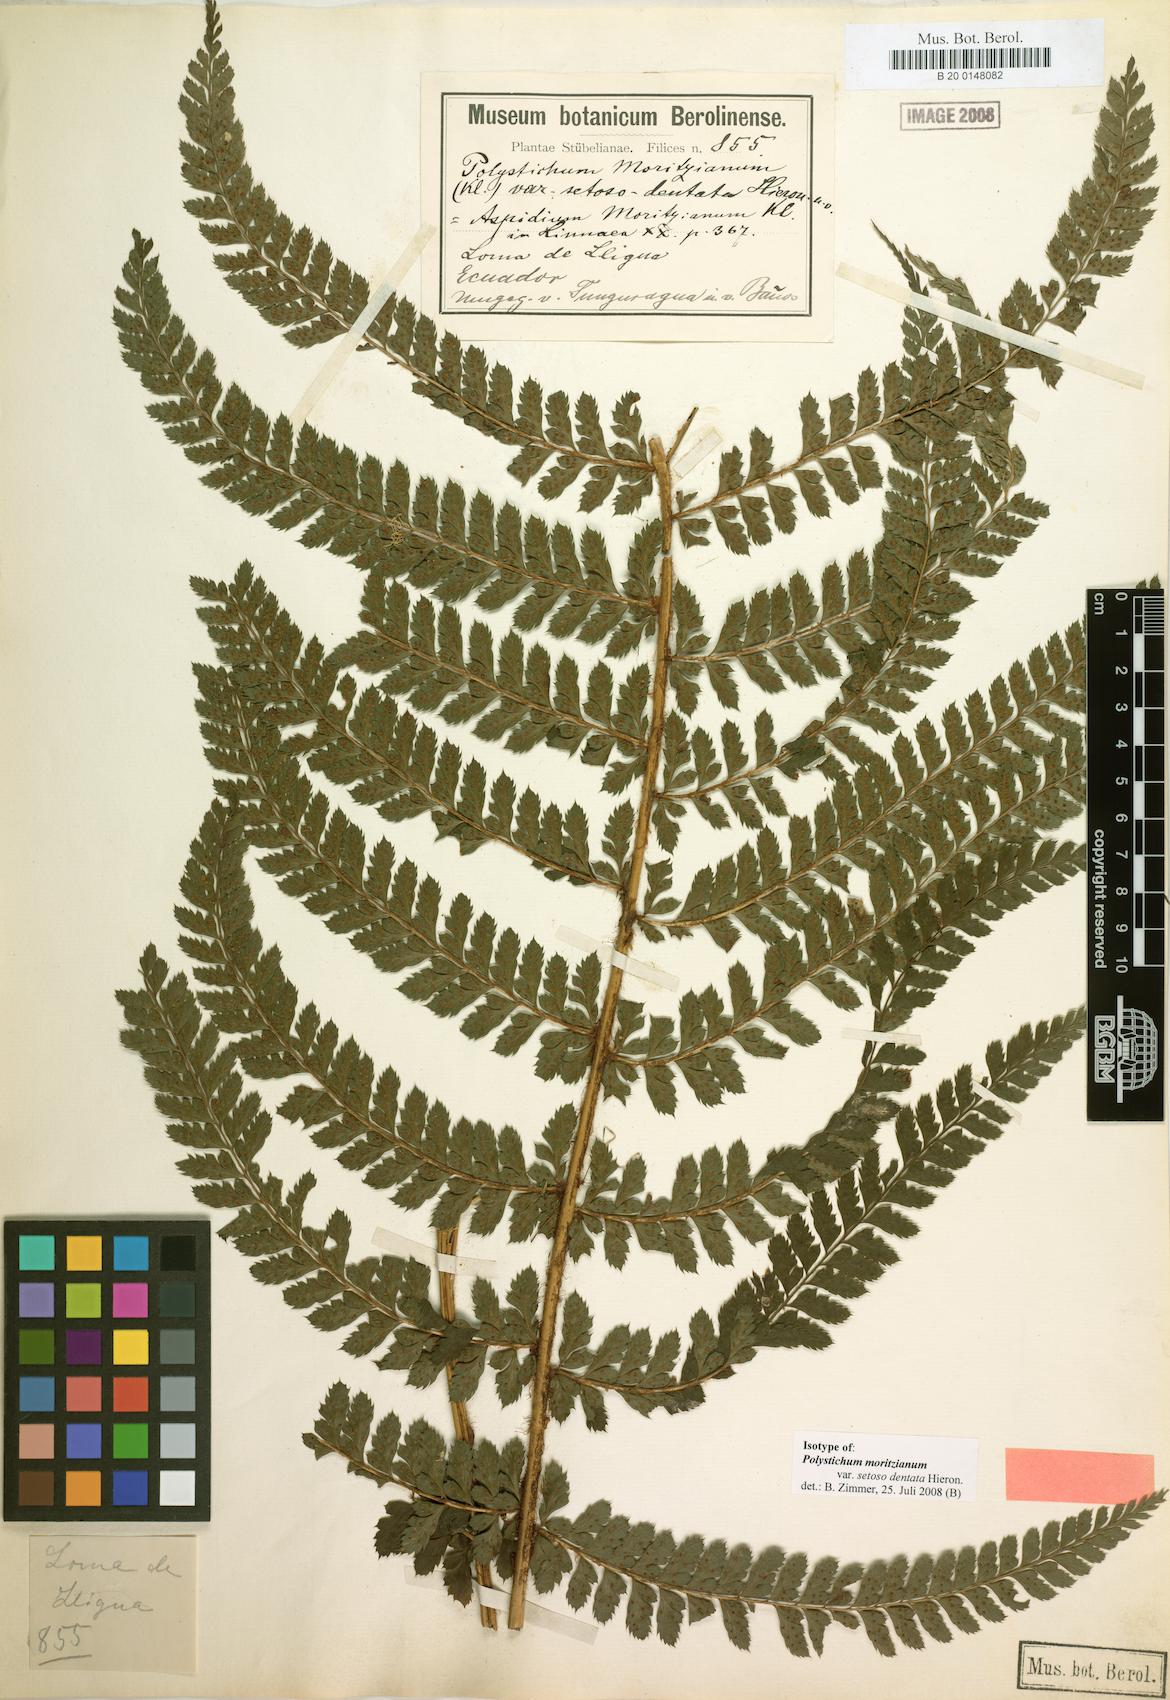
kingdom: Plantae
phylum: Tracheophyta
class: Polypodiopsida
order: Polypodiales
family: Dryopteridaceae
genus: Polystichum
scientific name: Polystichum muricatum
